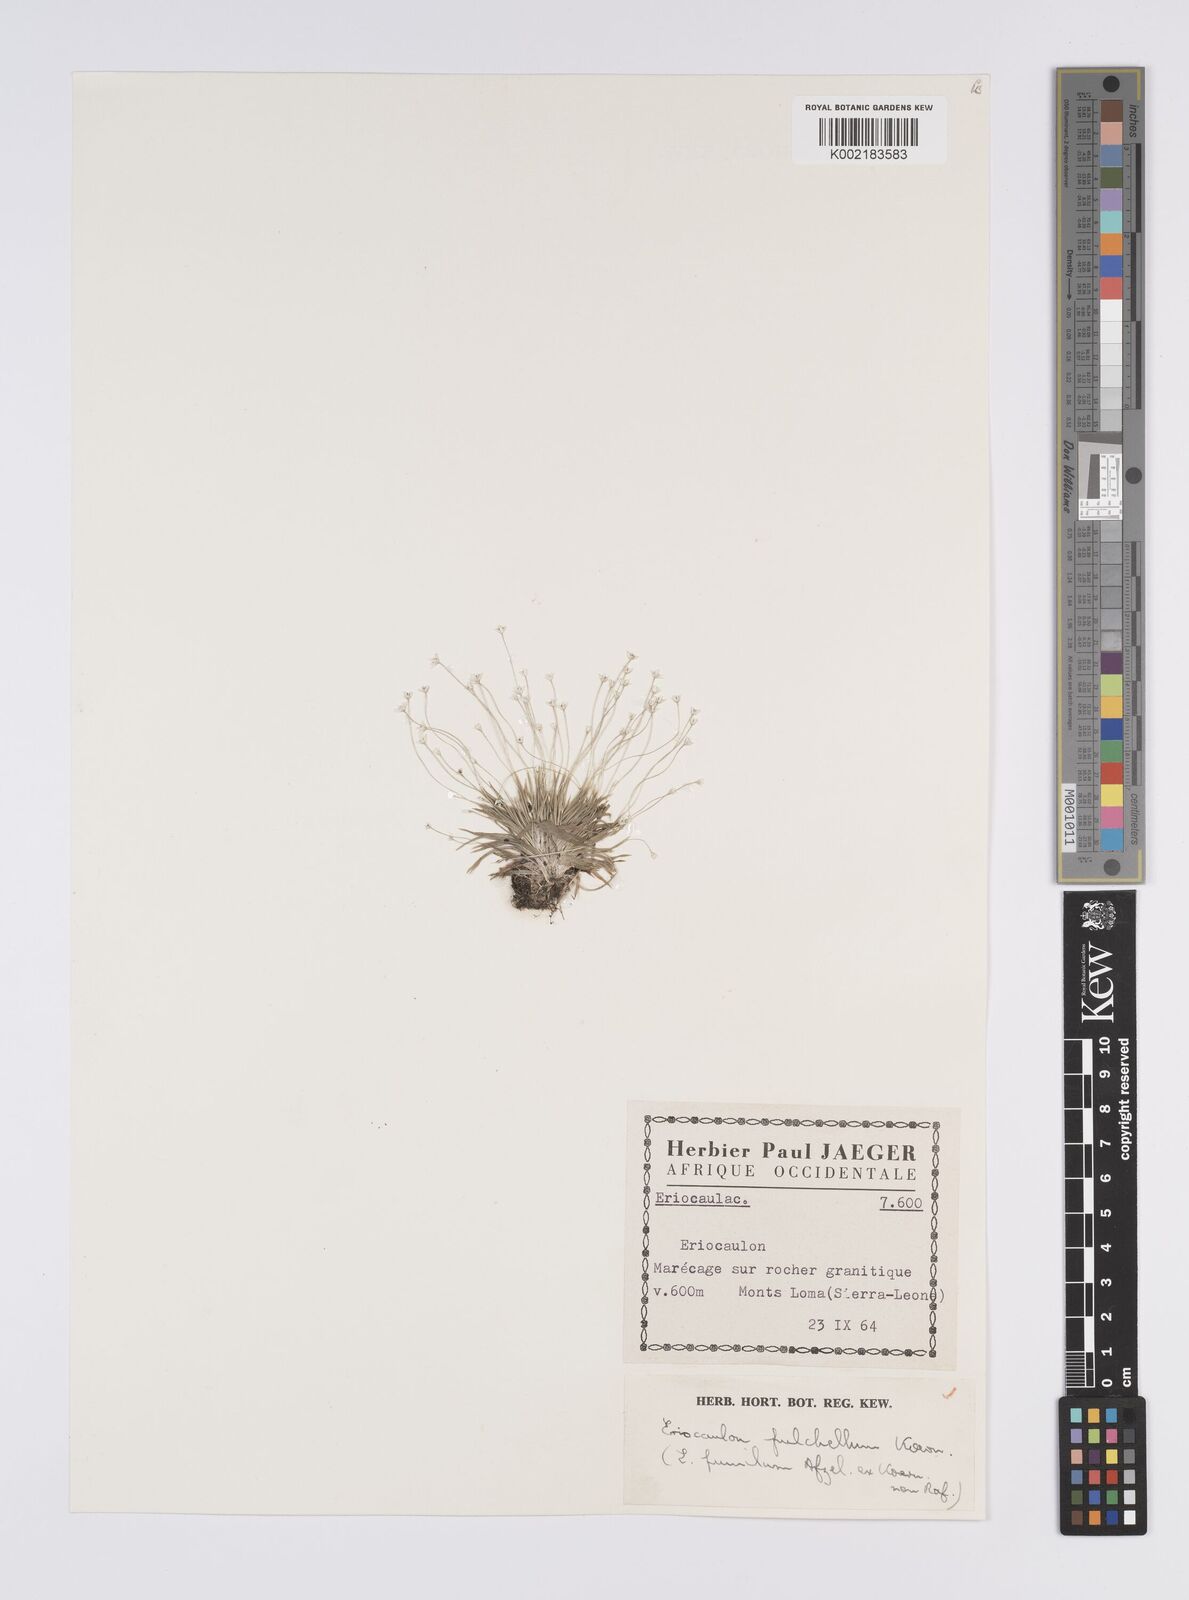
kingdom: Plantae
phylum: Tracheophyta
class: Liliopsida
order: Poales
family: Eriocaulaceae
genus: Eriocaulon
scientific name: Eriocaulon pulchellum
